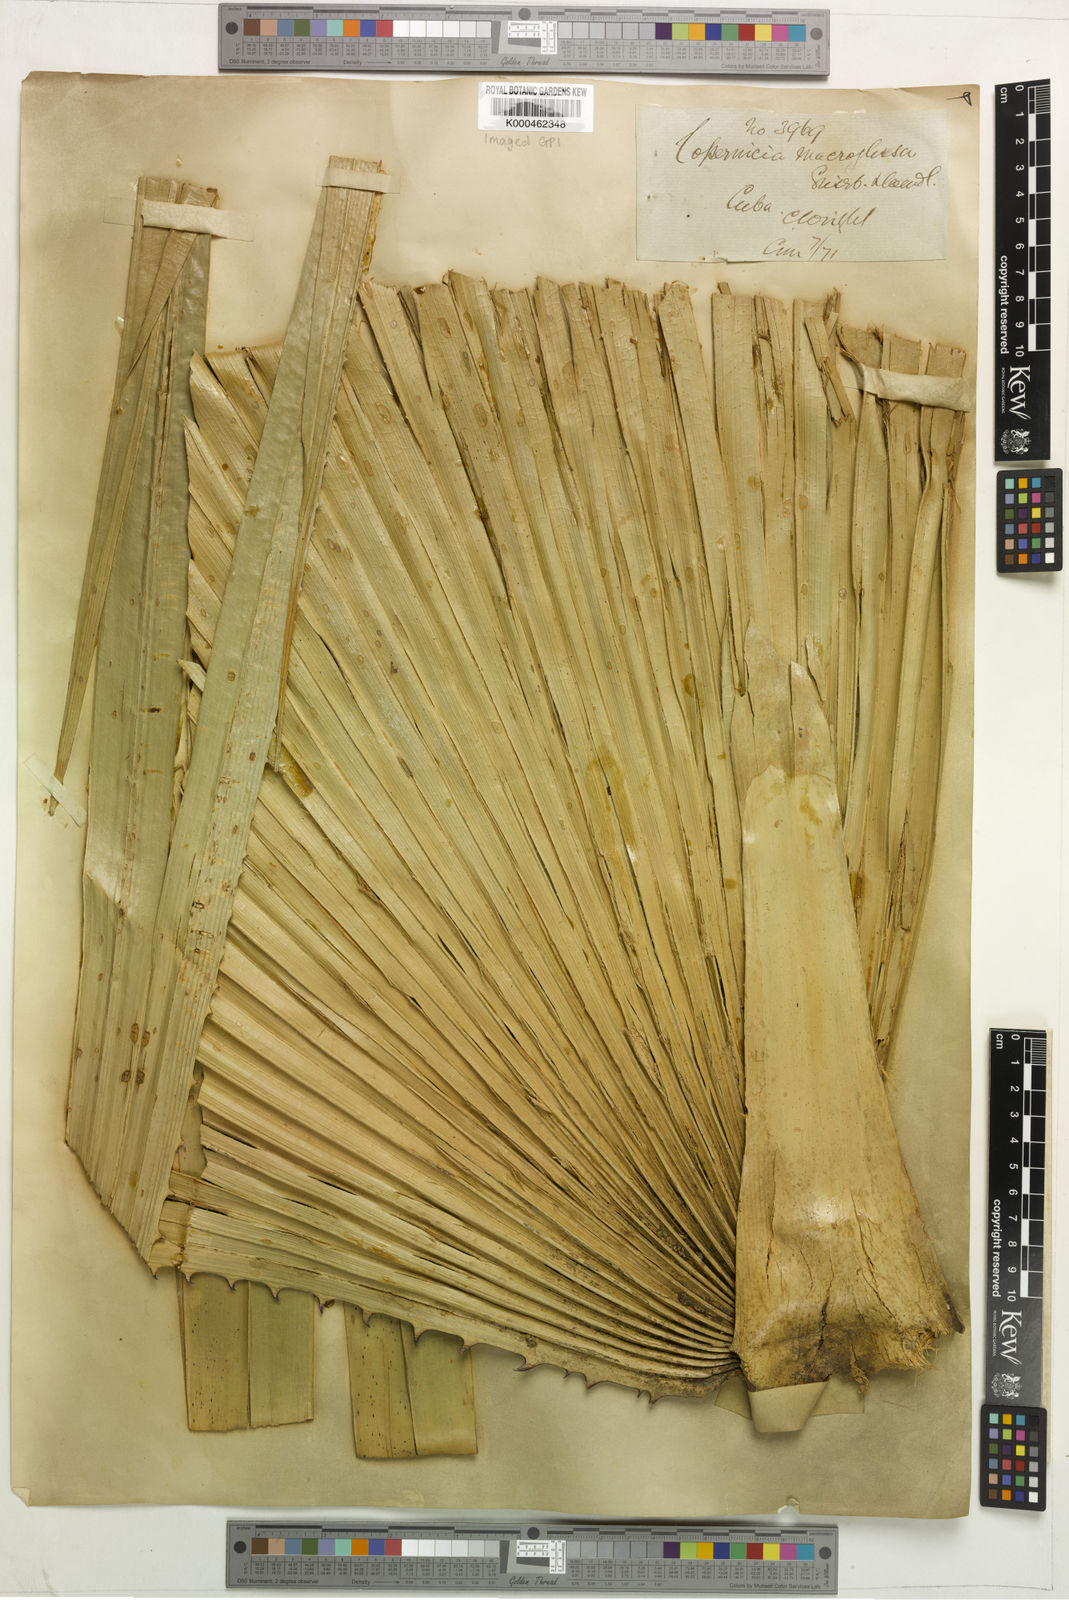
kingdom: Plantae
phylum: Tracheophyta
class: Liliopsida
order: Arecales
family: Arecaceae
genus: Copernicia
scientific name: Copernicia
